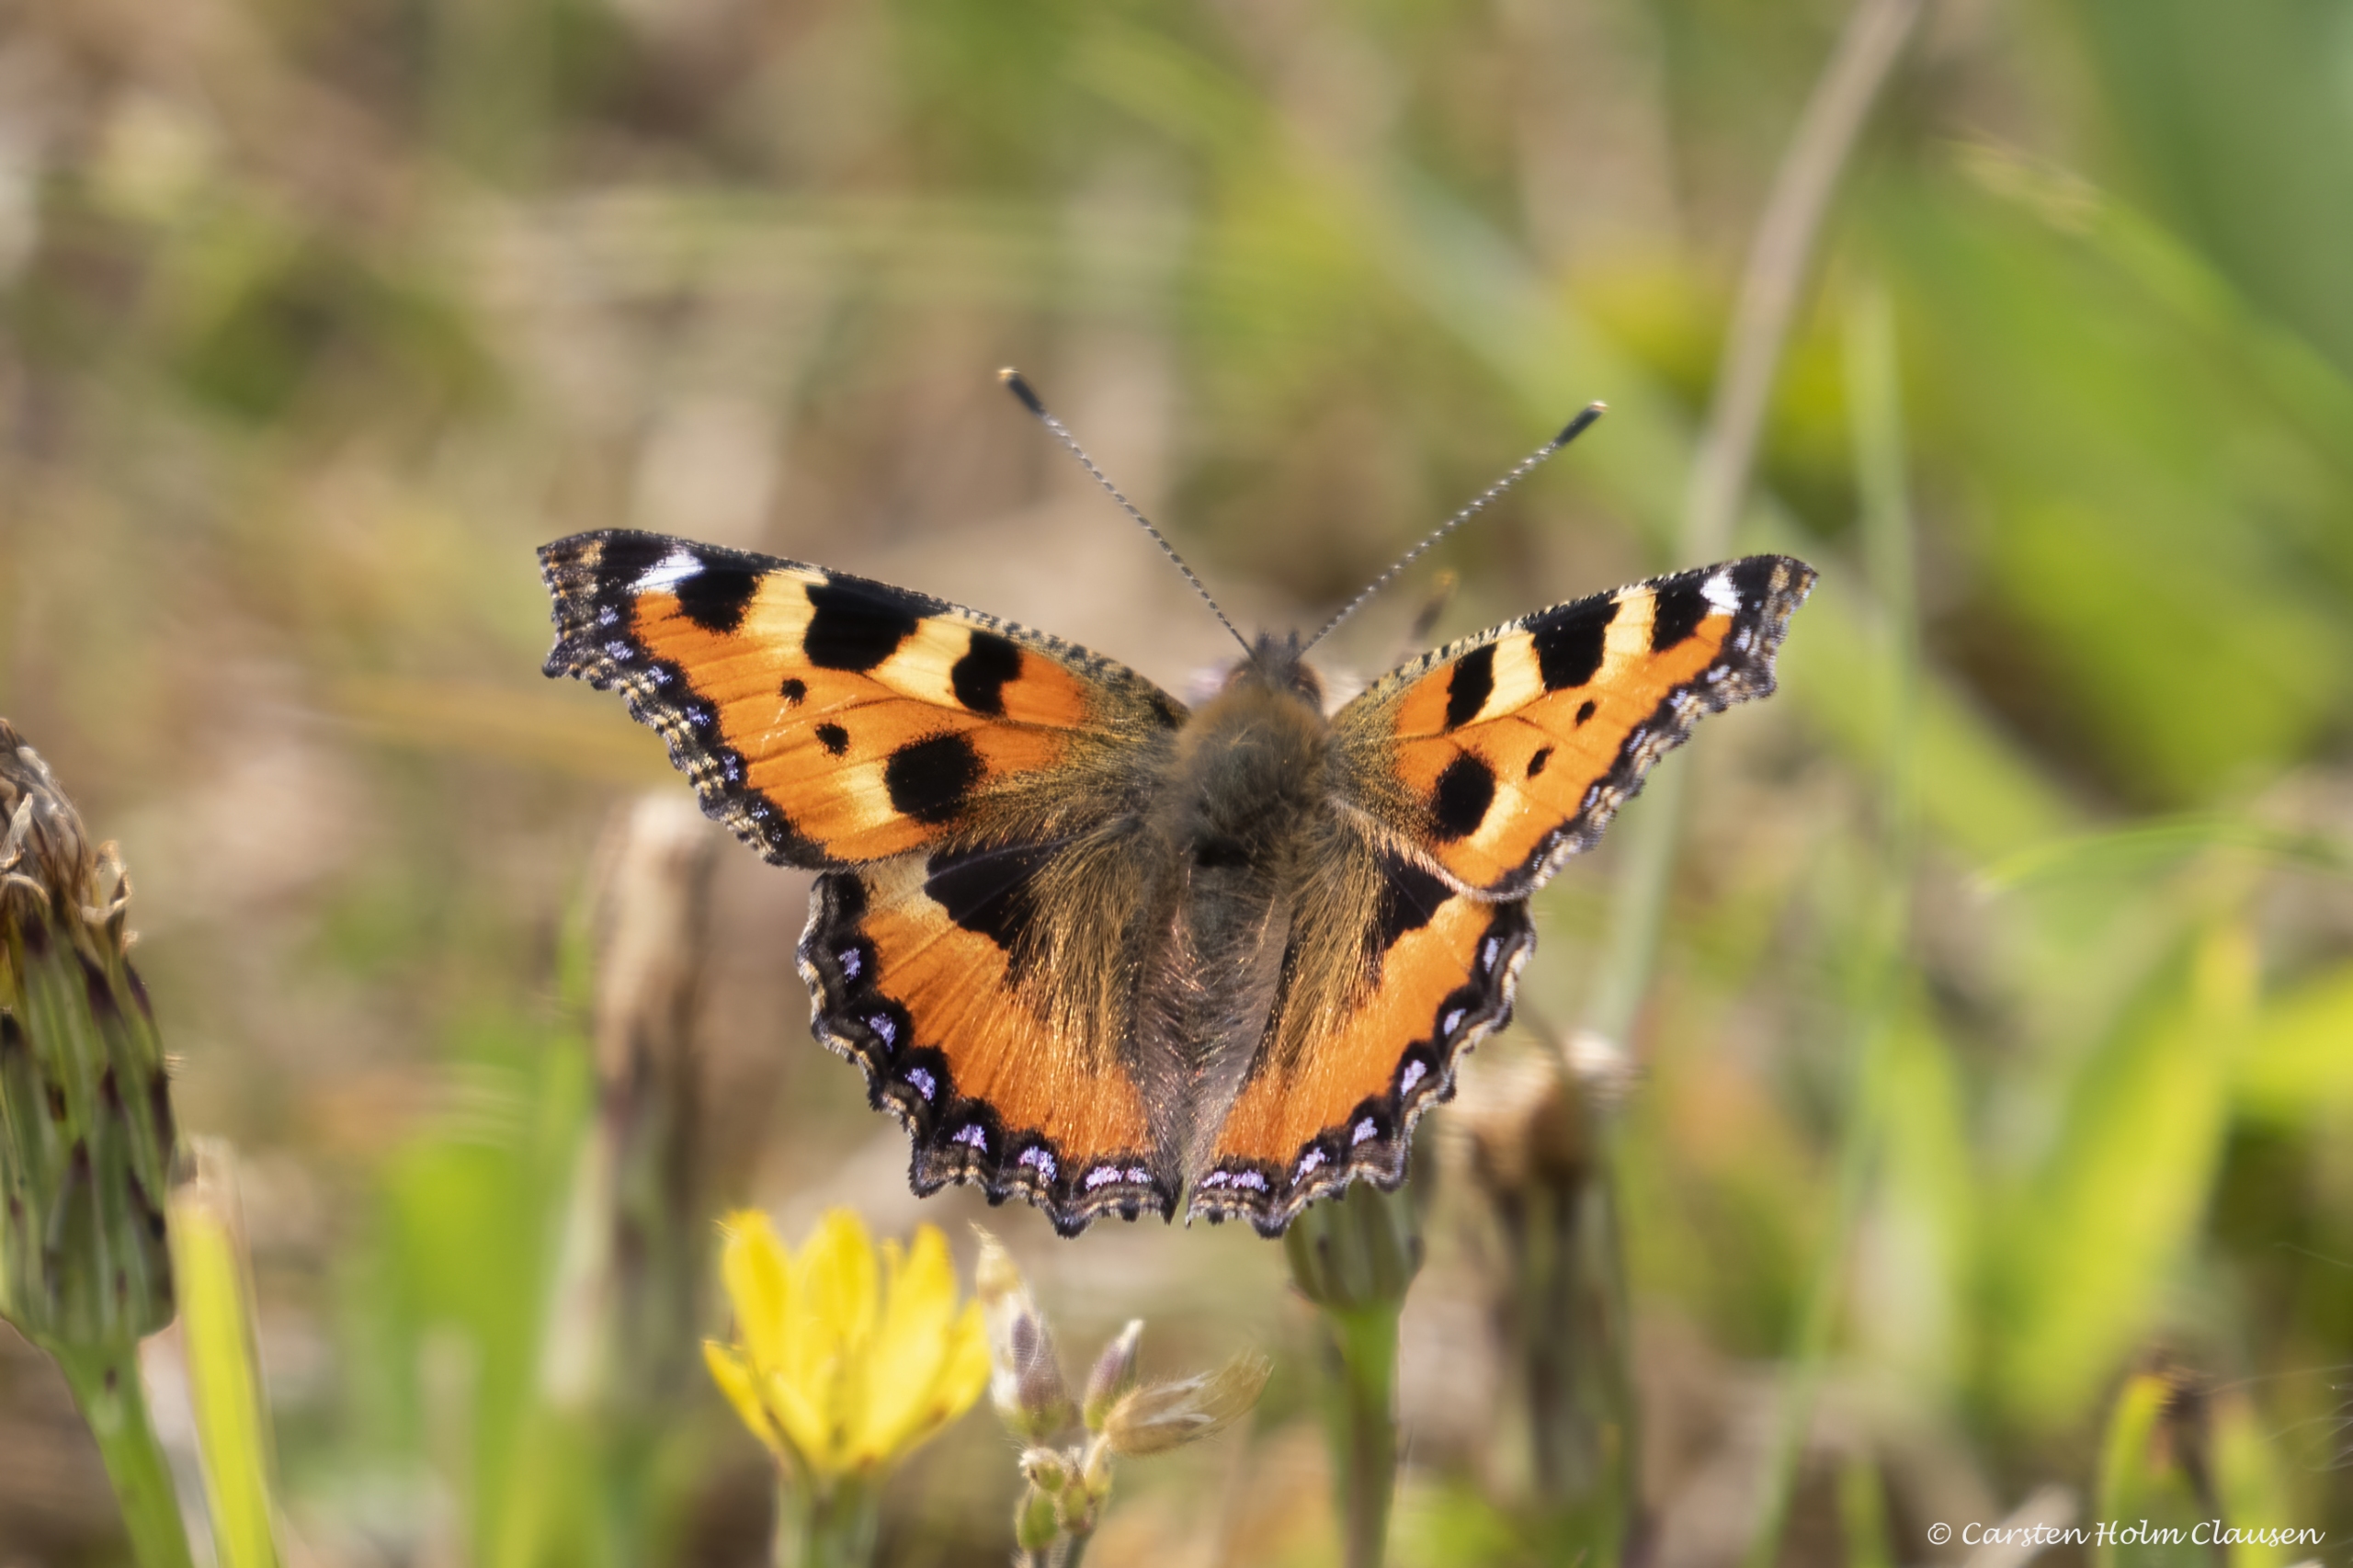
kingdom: Animalia
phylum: Arthropoda
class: Insecta
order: Lepidoptera
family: Nymphalidae
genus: Aglais
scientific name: Aglais urticae
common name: Nældens takvinge
